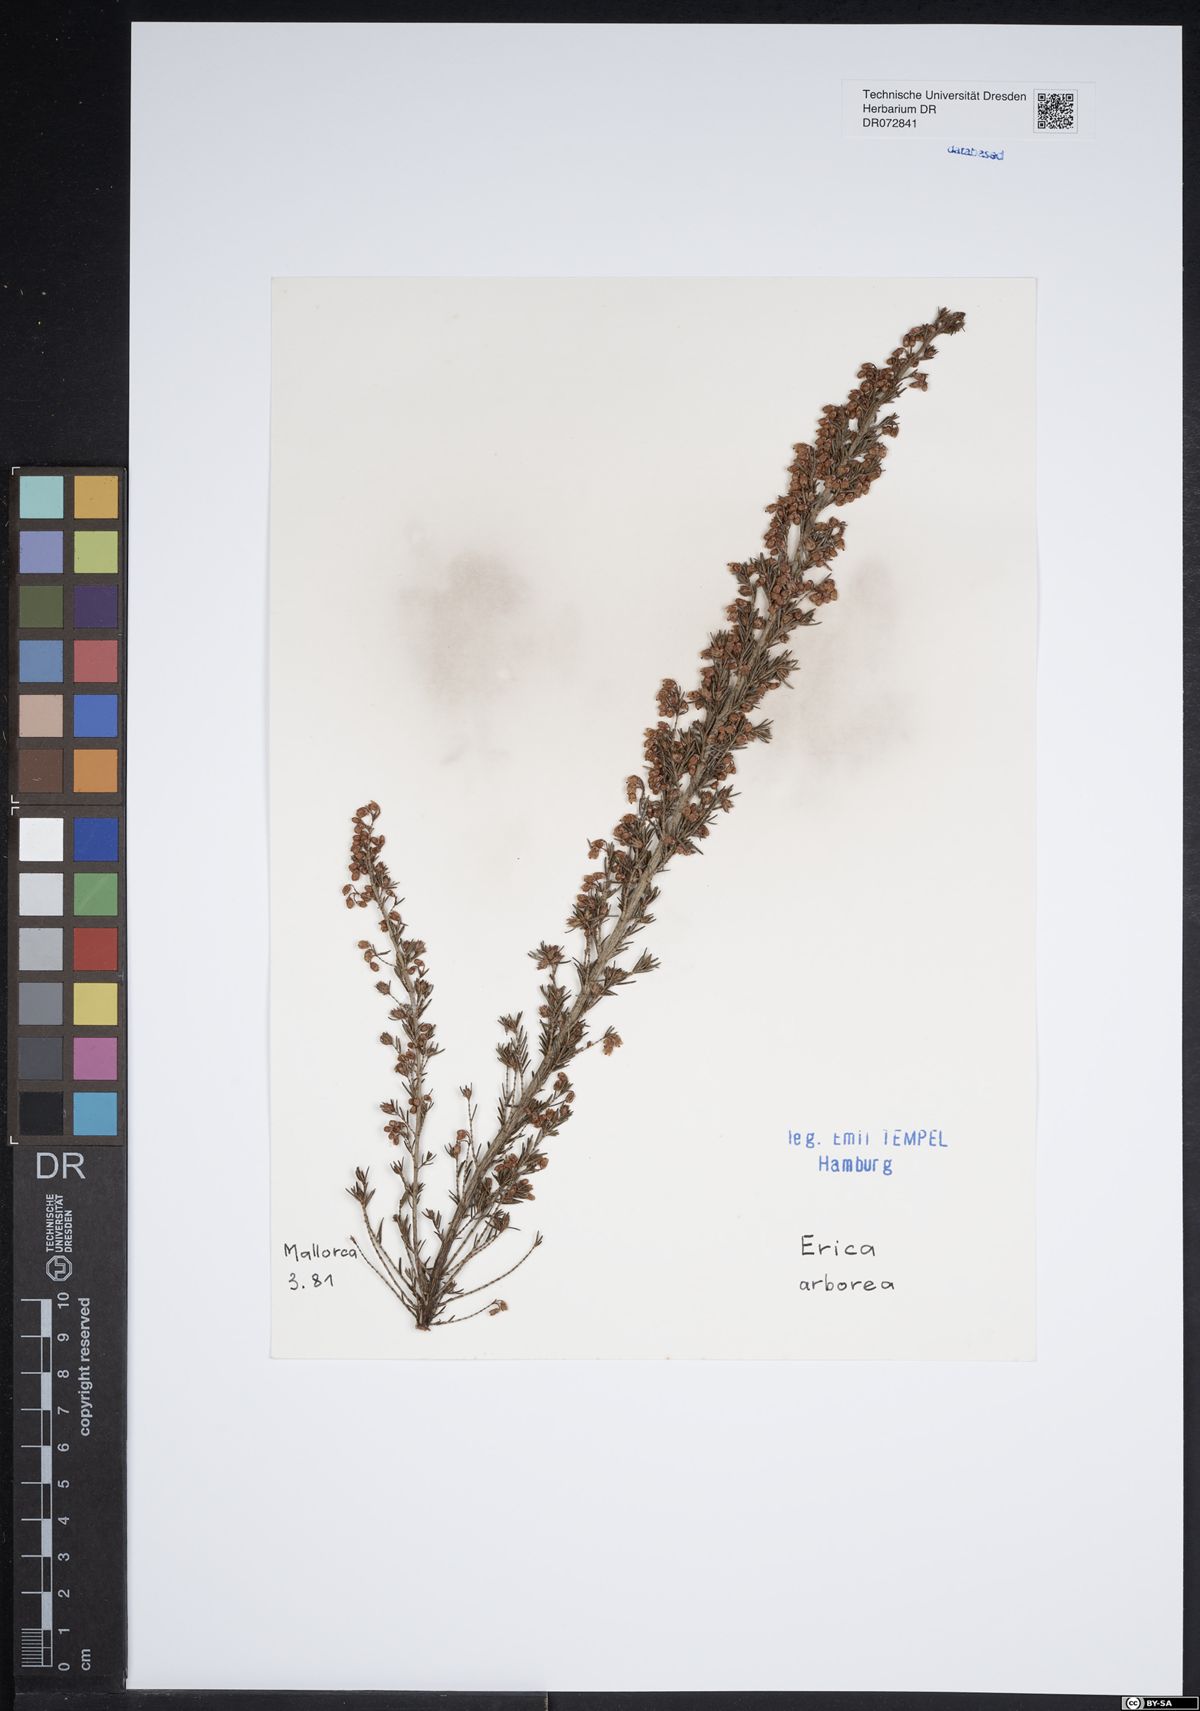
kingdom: Plantae
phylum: Tracheophyta
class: Magnoliopsida
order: Ericales
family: Ericaceae
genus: Erica
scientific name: Erica arborea
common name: Tree heath
